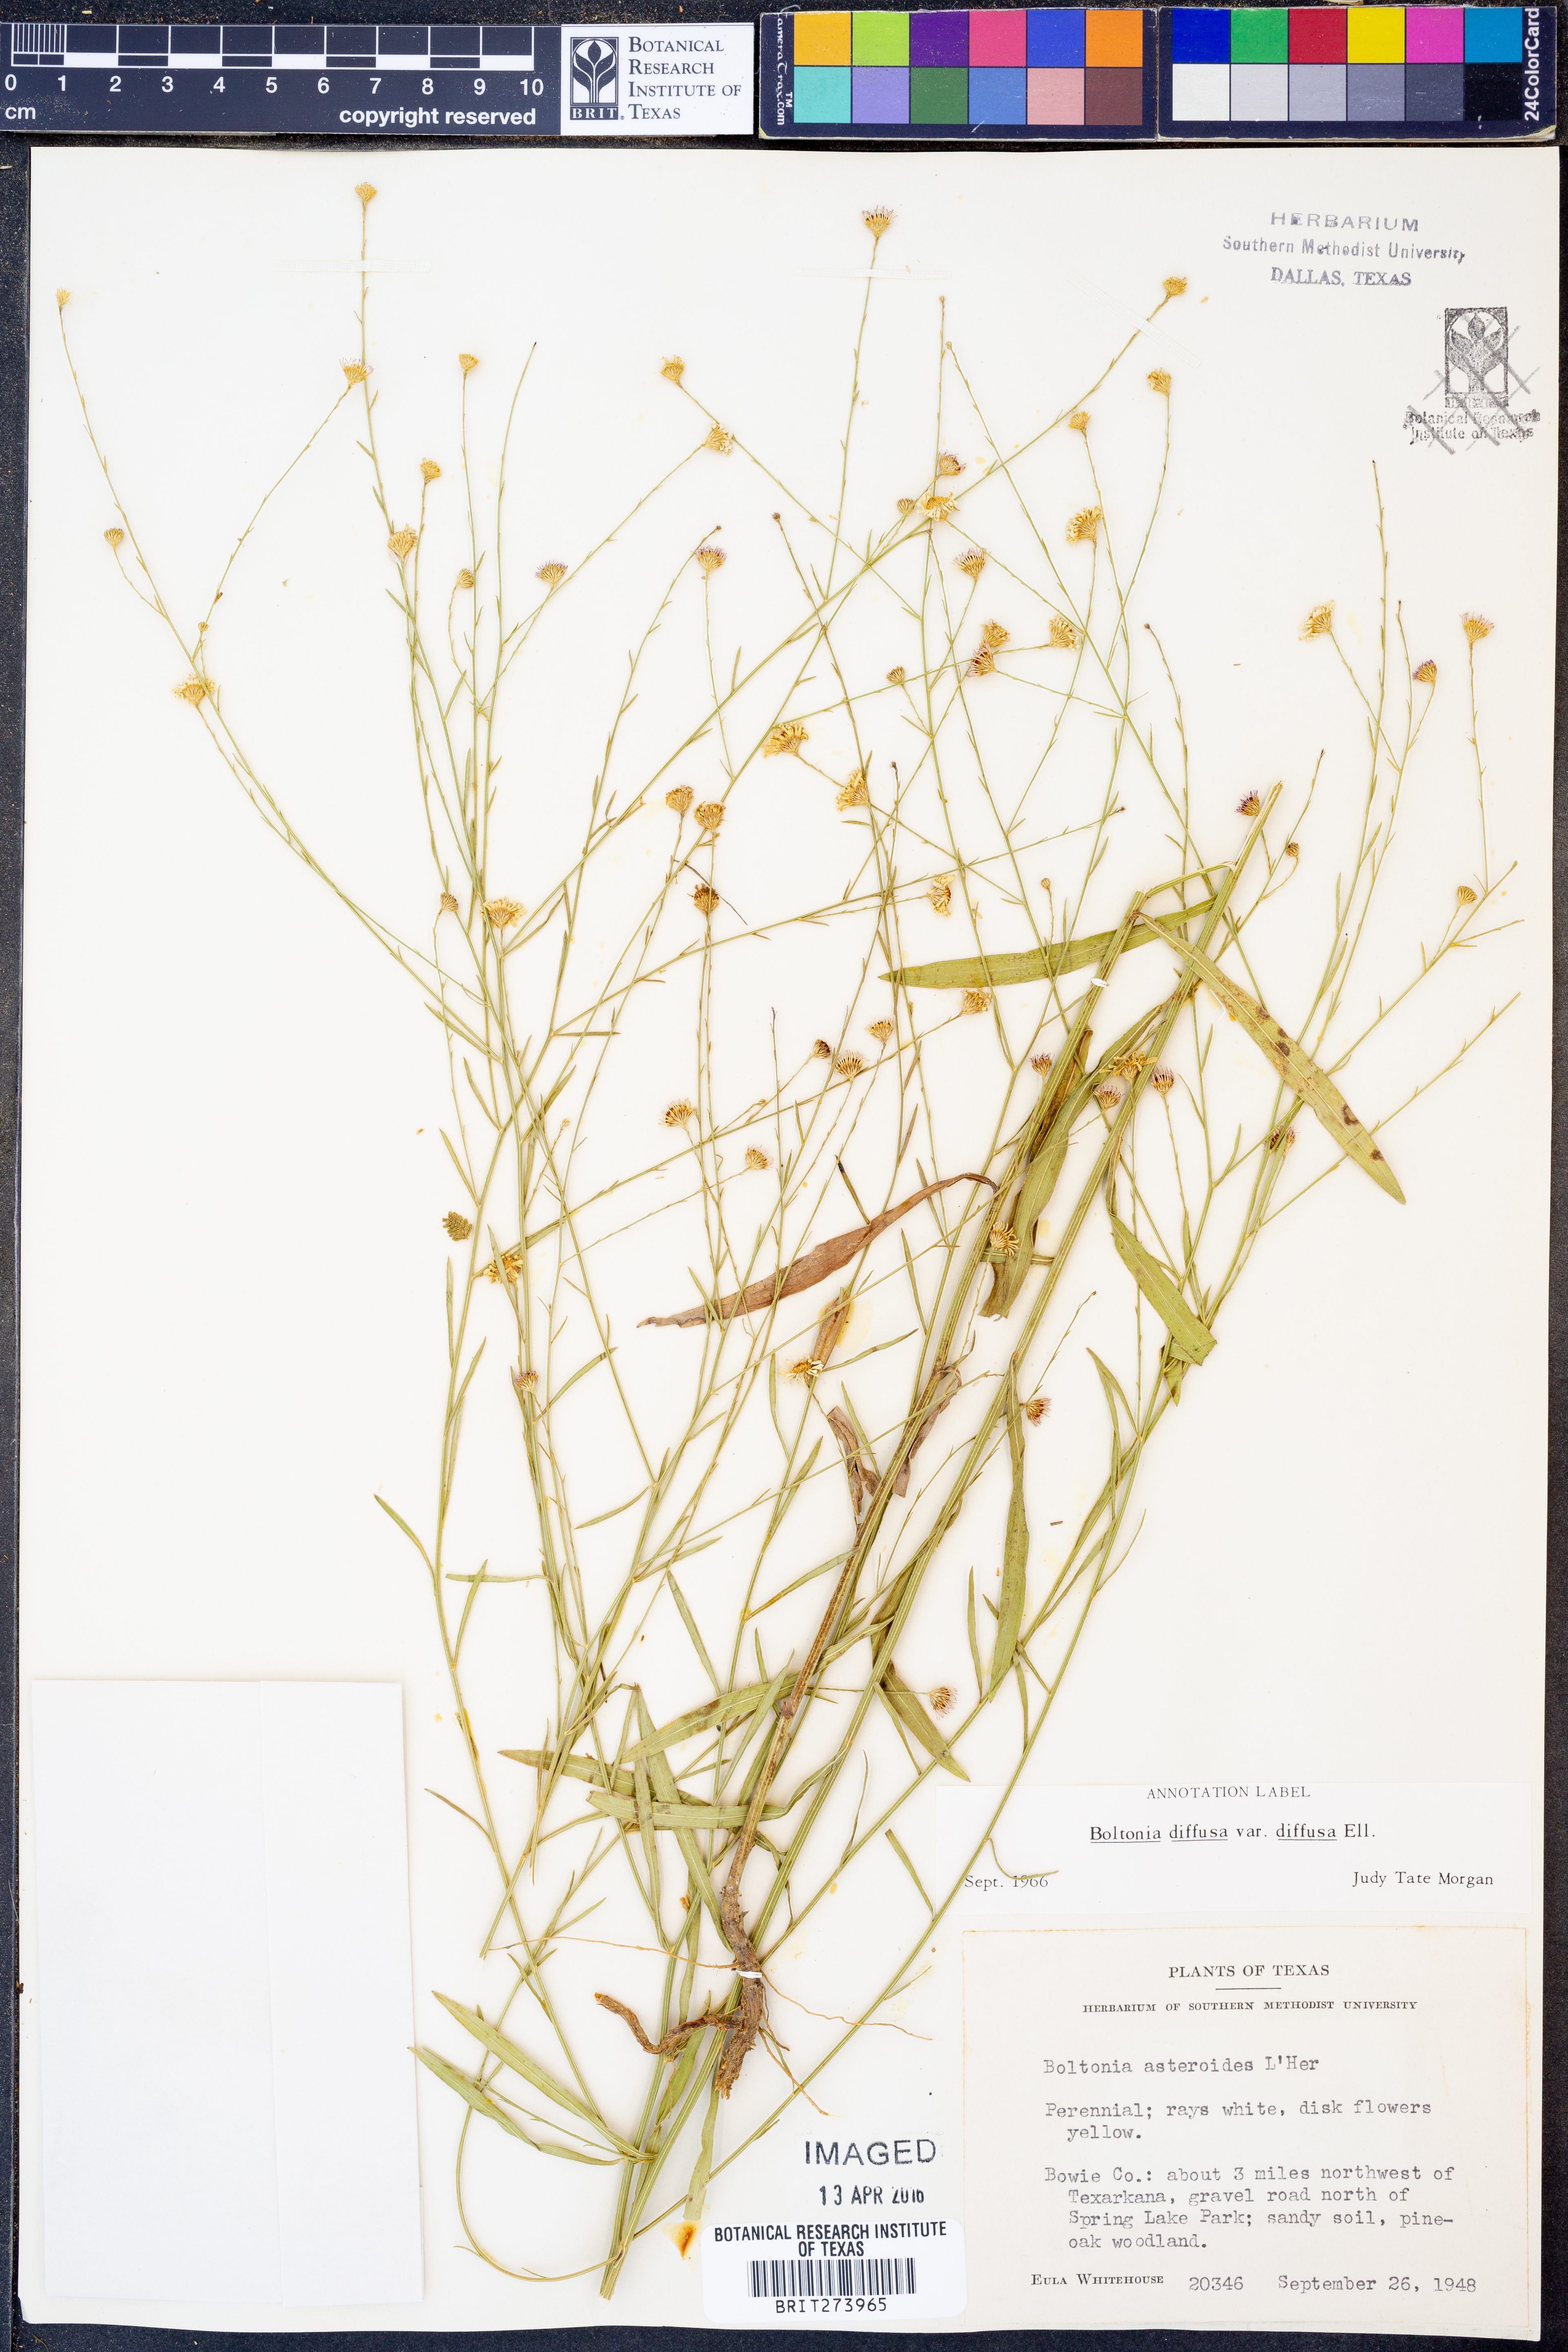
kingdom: Plantae
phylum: Tracheophyta
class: Magnoliopsida
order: Asterales
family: Asteraceae
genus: Boltonia
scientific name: Boltonia diffusa
